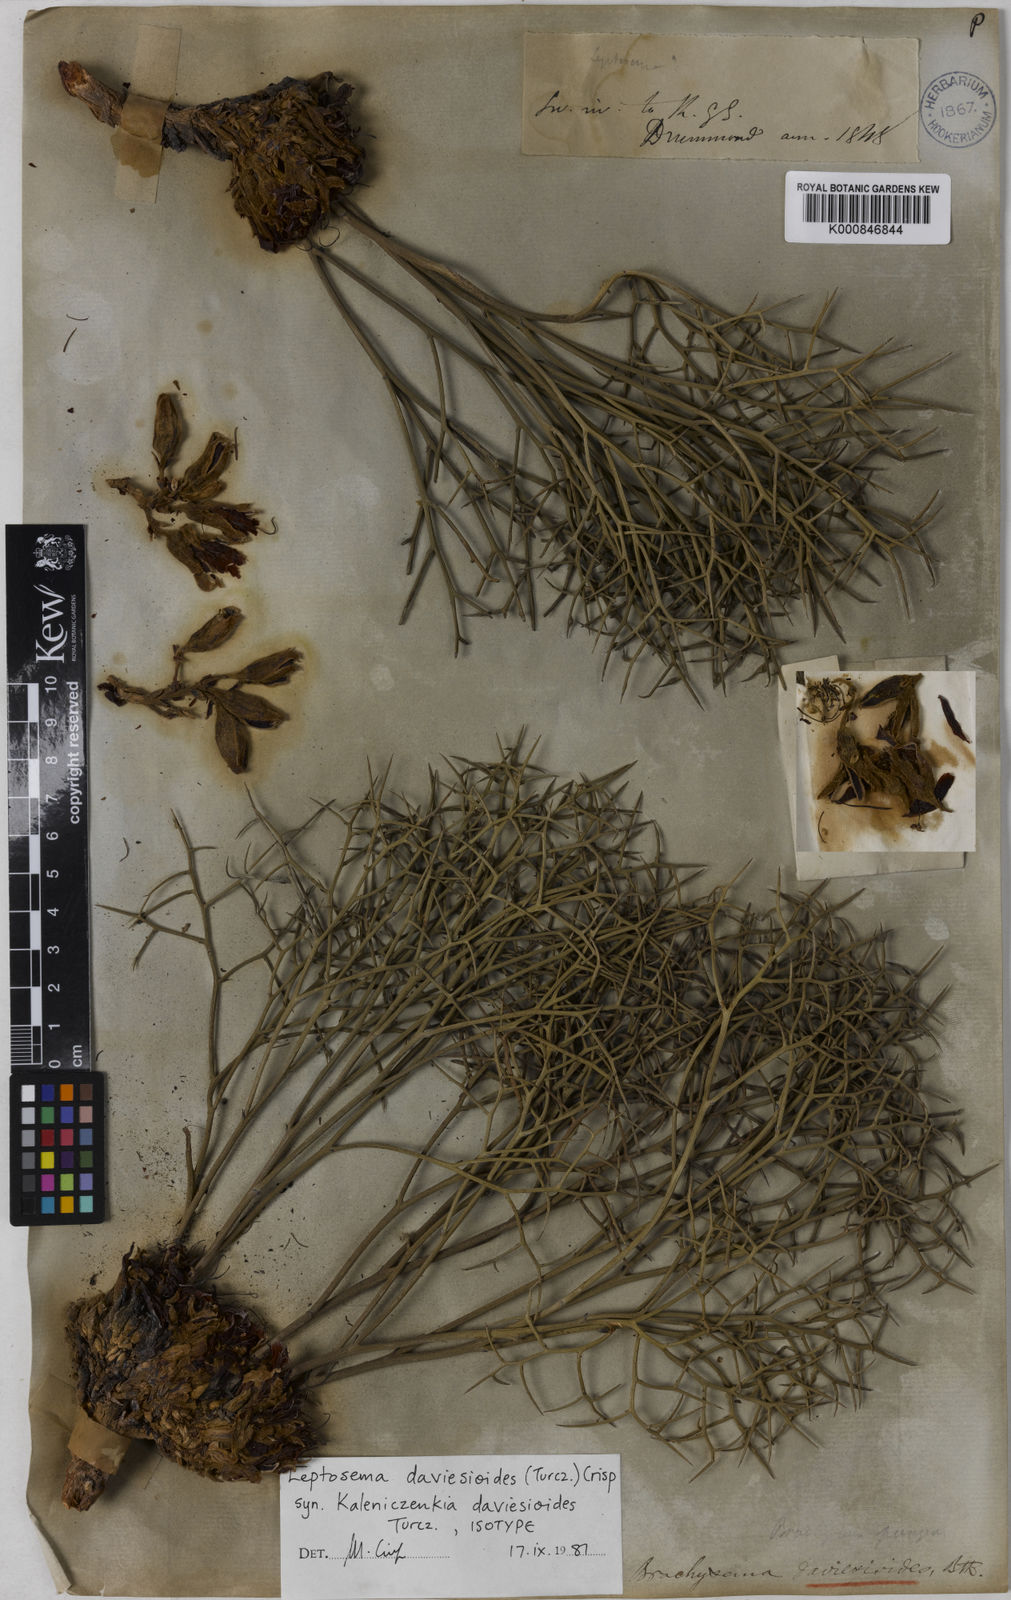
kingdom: Plantae
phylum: Tracheophyta
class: Magnoliopsida
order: Fabales
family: Fabaceae
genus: Leptosema
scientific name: Leptosema daviesioides
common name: Upside-down pea-bush
